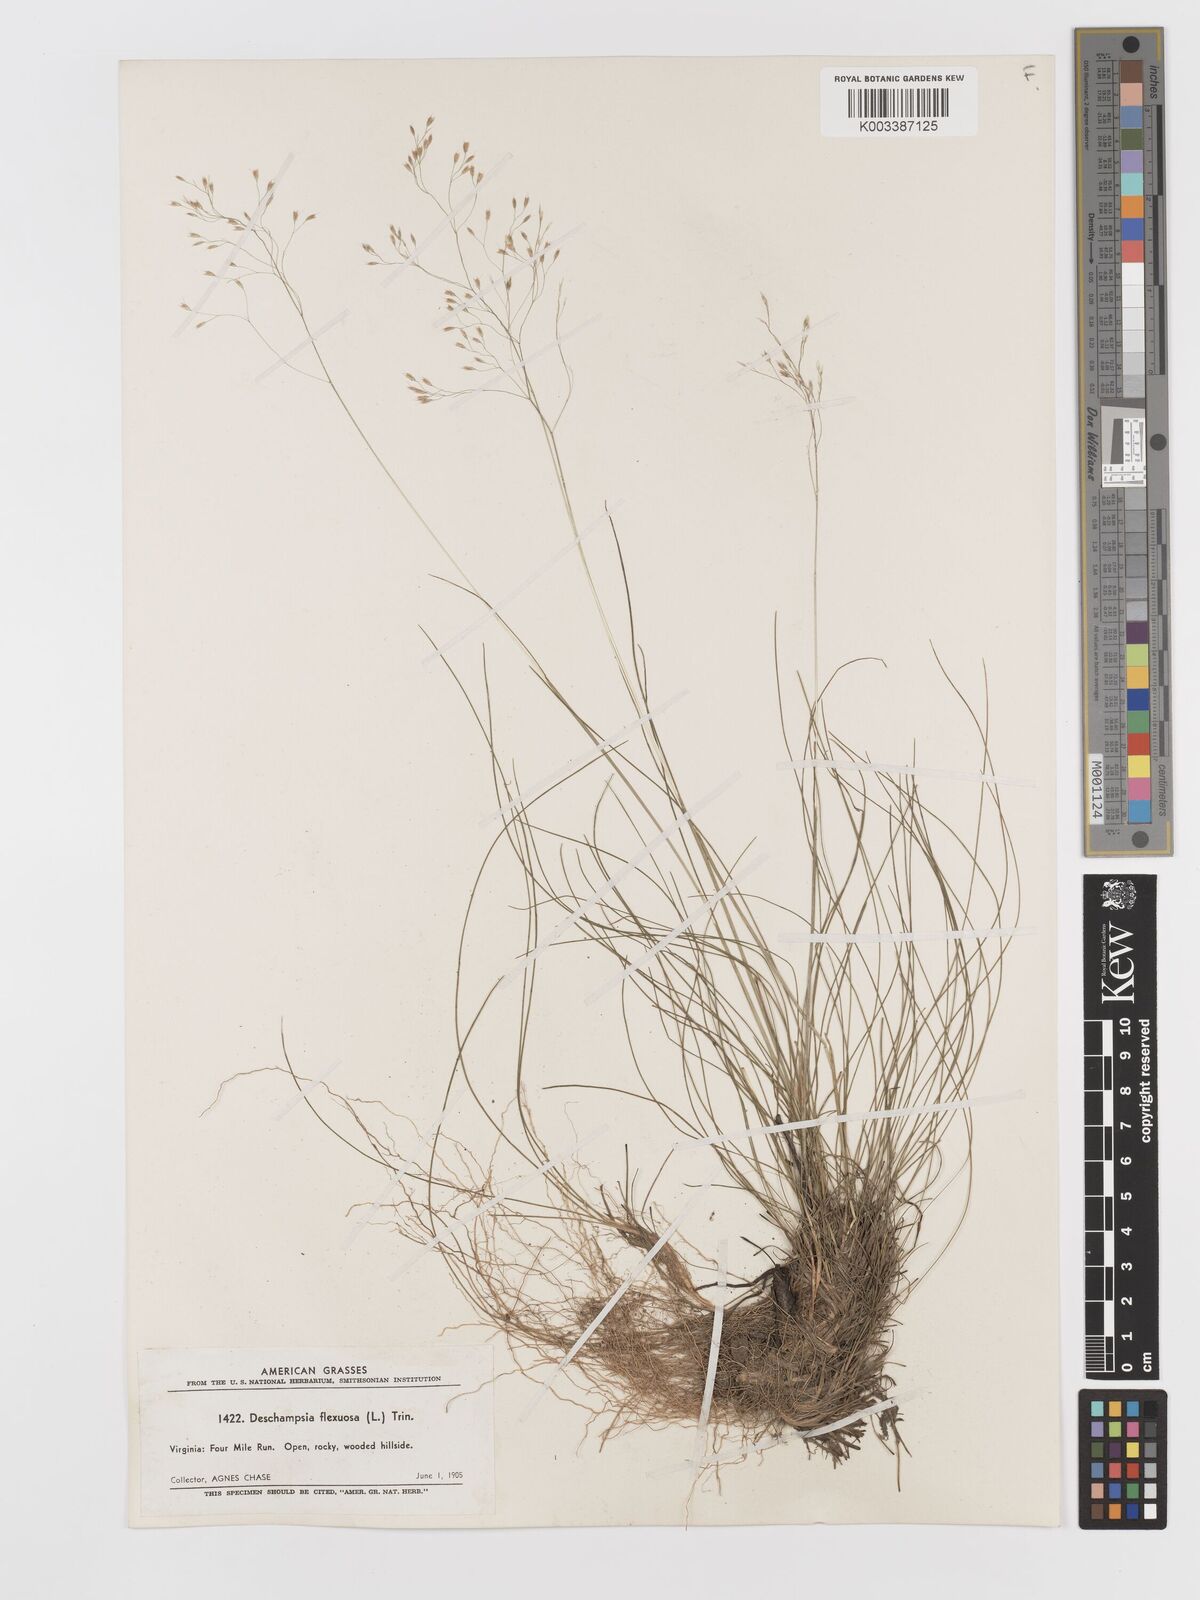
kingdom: Plantae
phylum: Tracheophyta
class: Liliopsida
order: Poales
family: Poaceae
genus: Avenella
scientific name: Avenella flexuosa
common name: Wavy hairgrass
